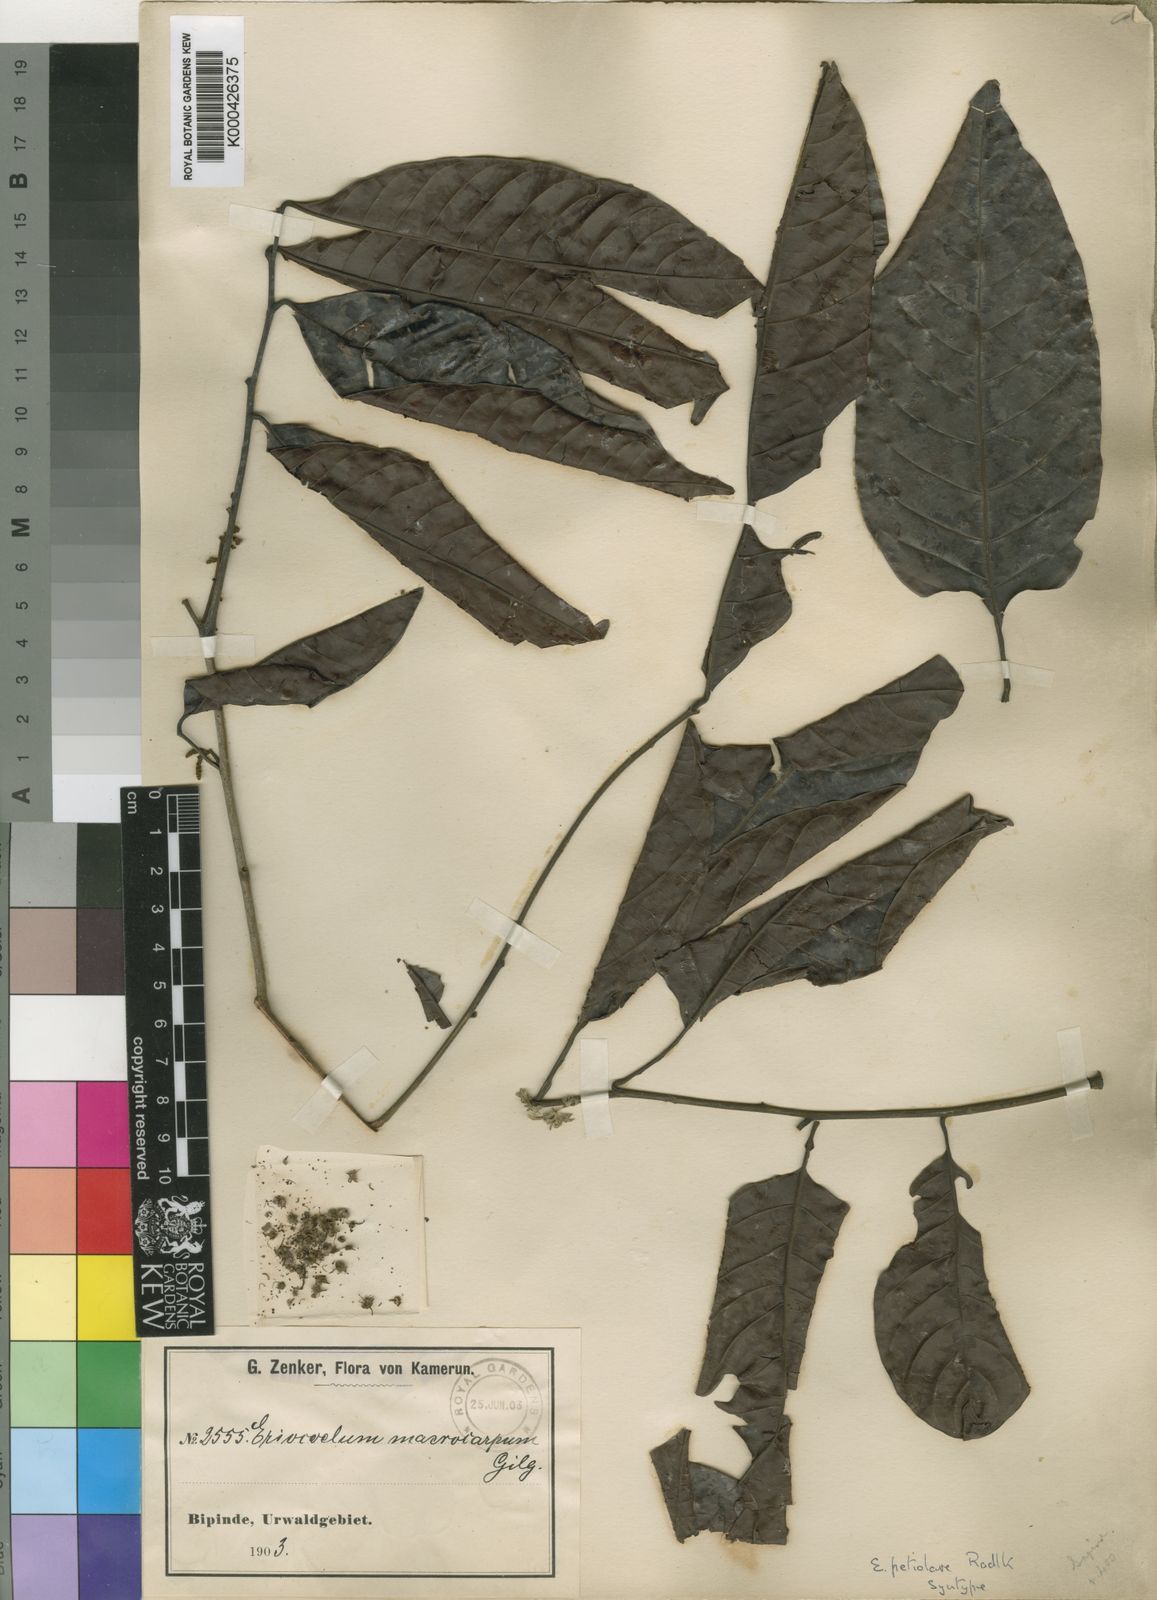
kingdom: Plantae
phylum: Tracheophyta
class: Magnoliopsida
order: Sapindales
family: Sapindaceae
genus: Eriocoelum
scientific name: Eriocoelum petiolare
